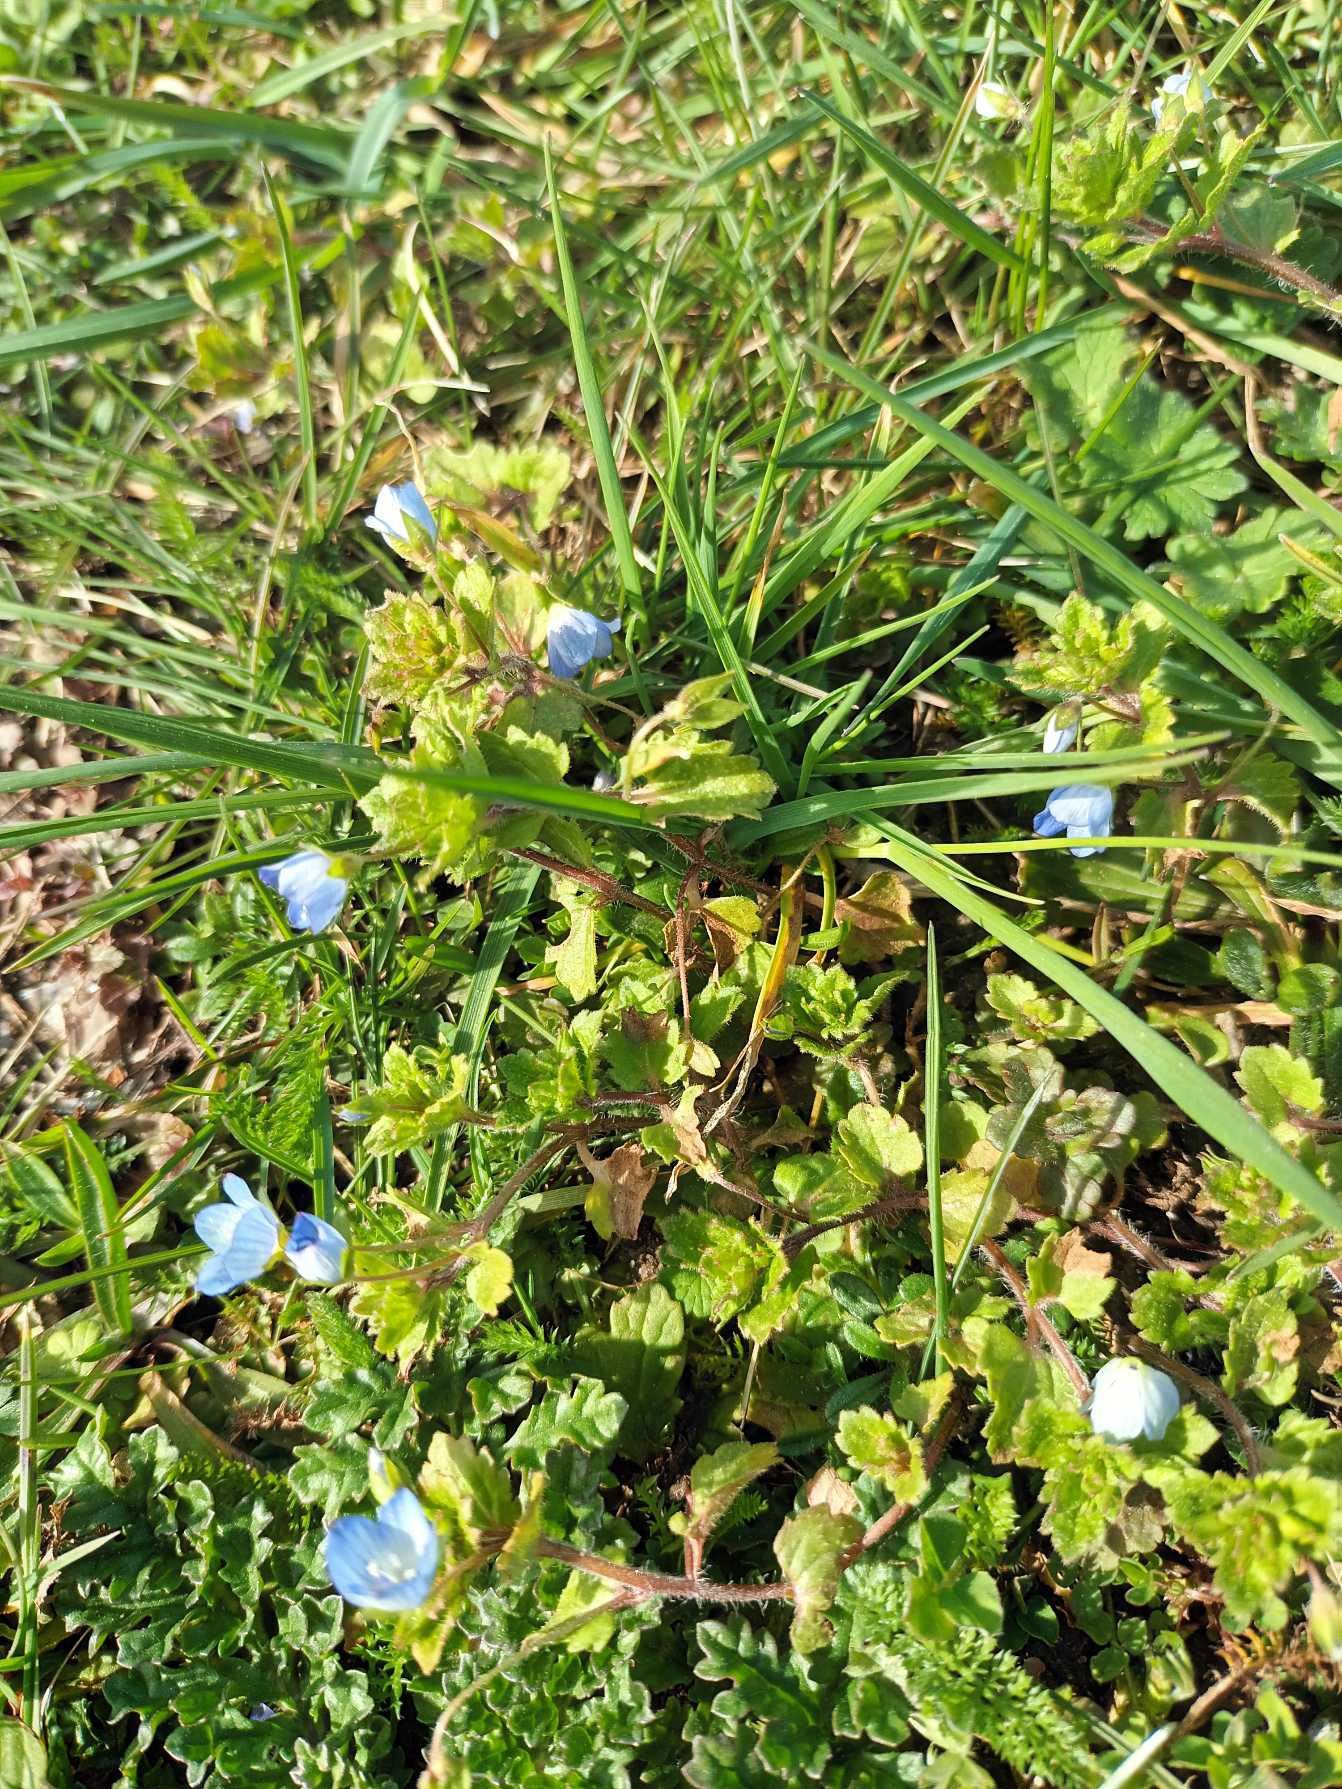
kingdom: Plantae
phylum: Tracheophyta
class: Magnoliopsida
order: Lamiales
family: Plantaginaceae
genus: Veronica
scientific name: Veronica persica
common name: Storkronet ærenpris
